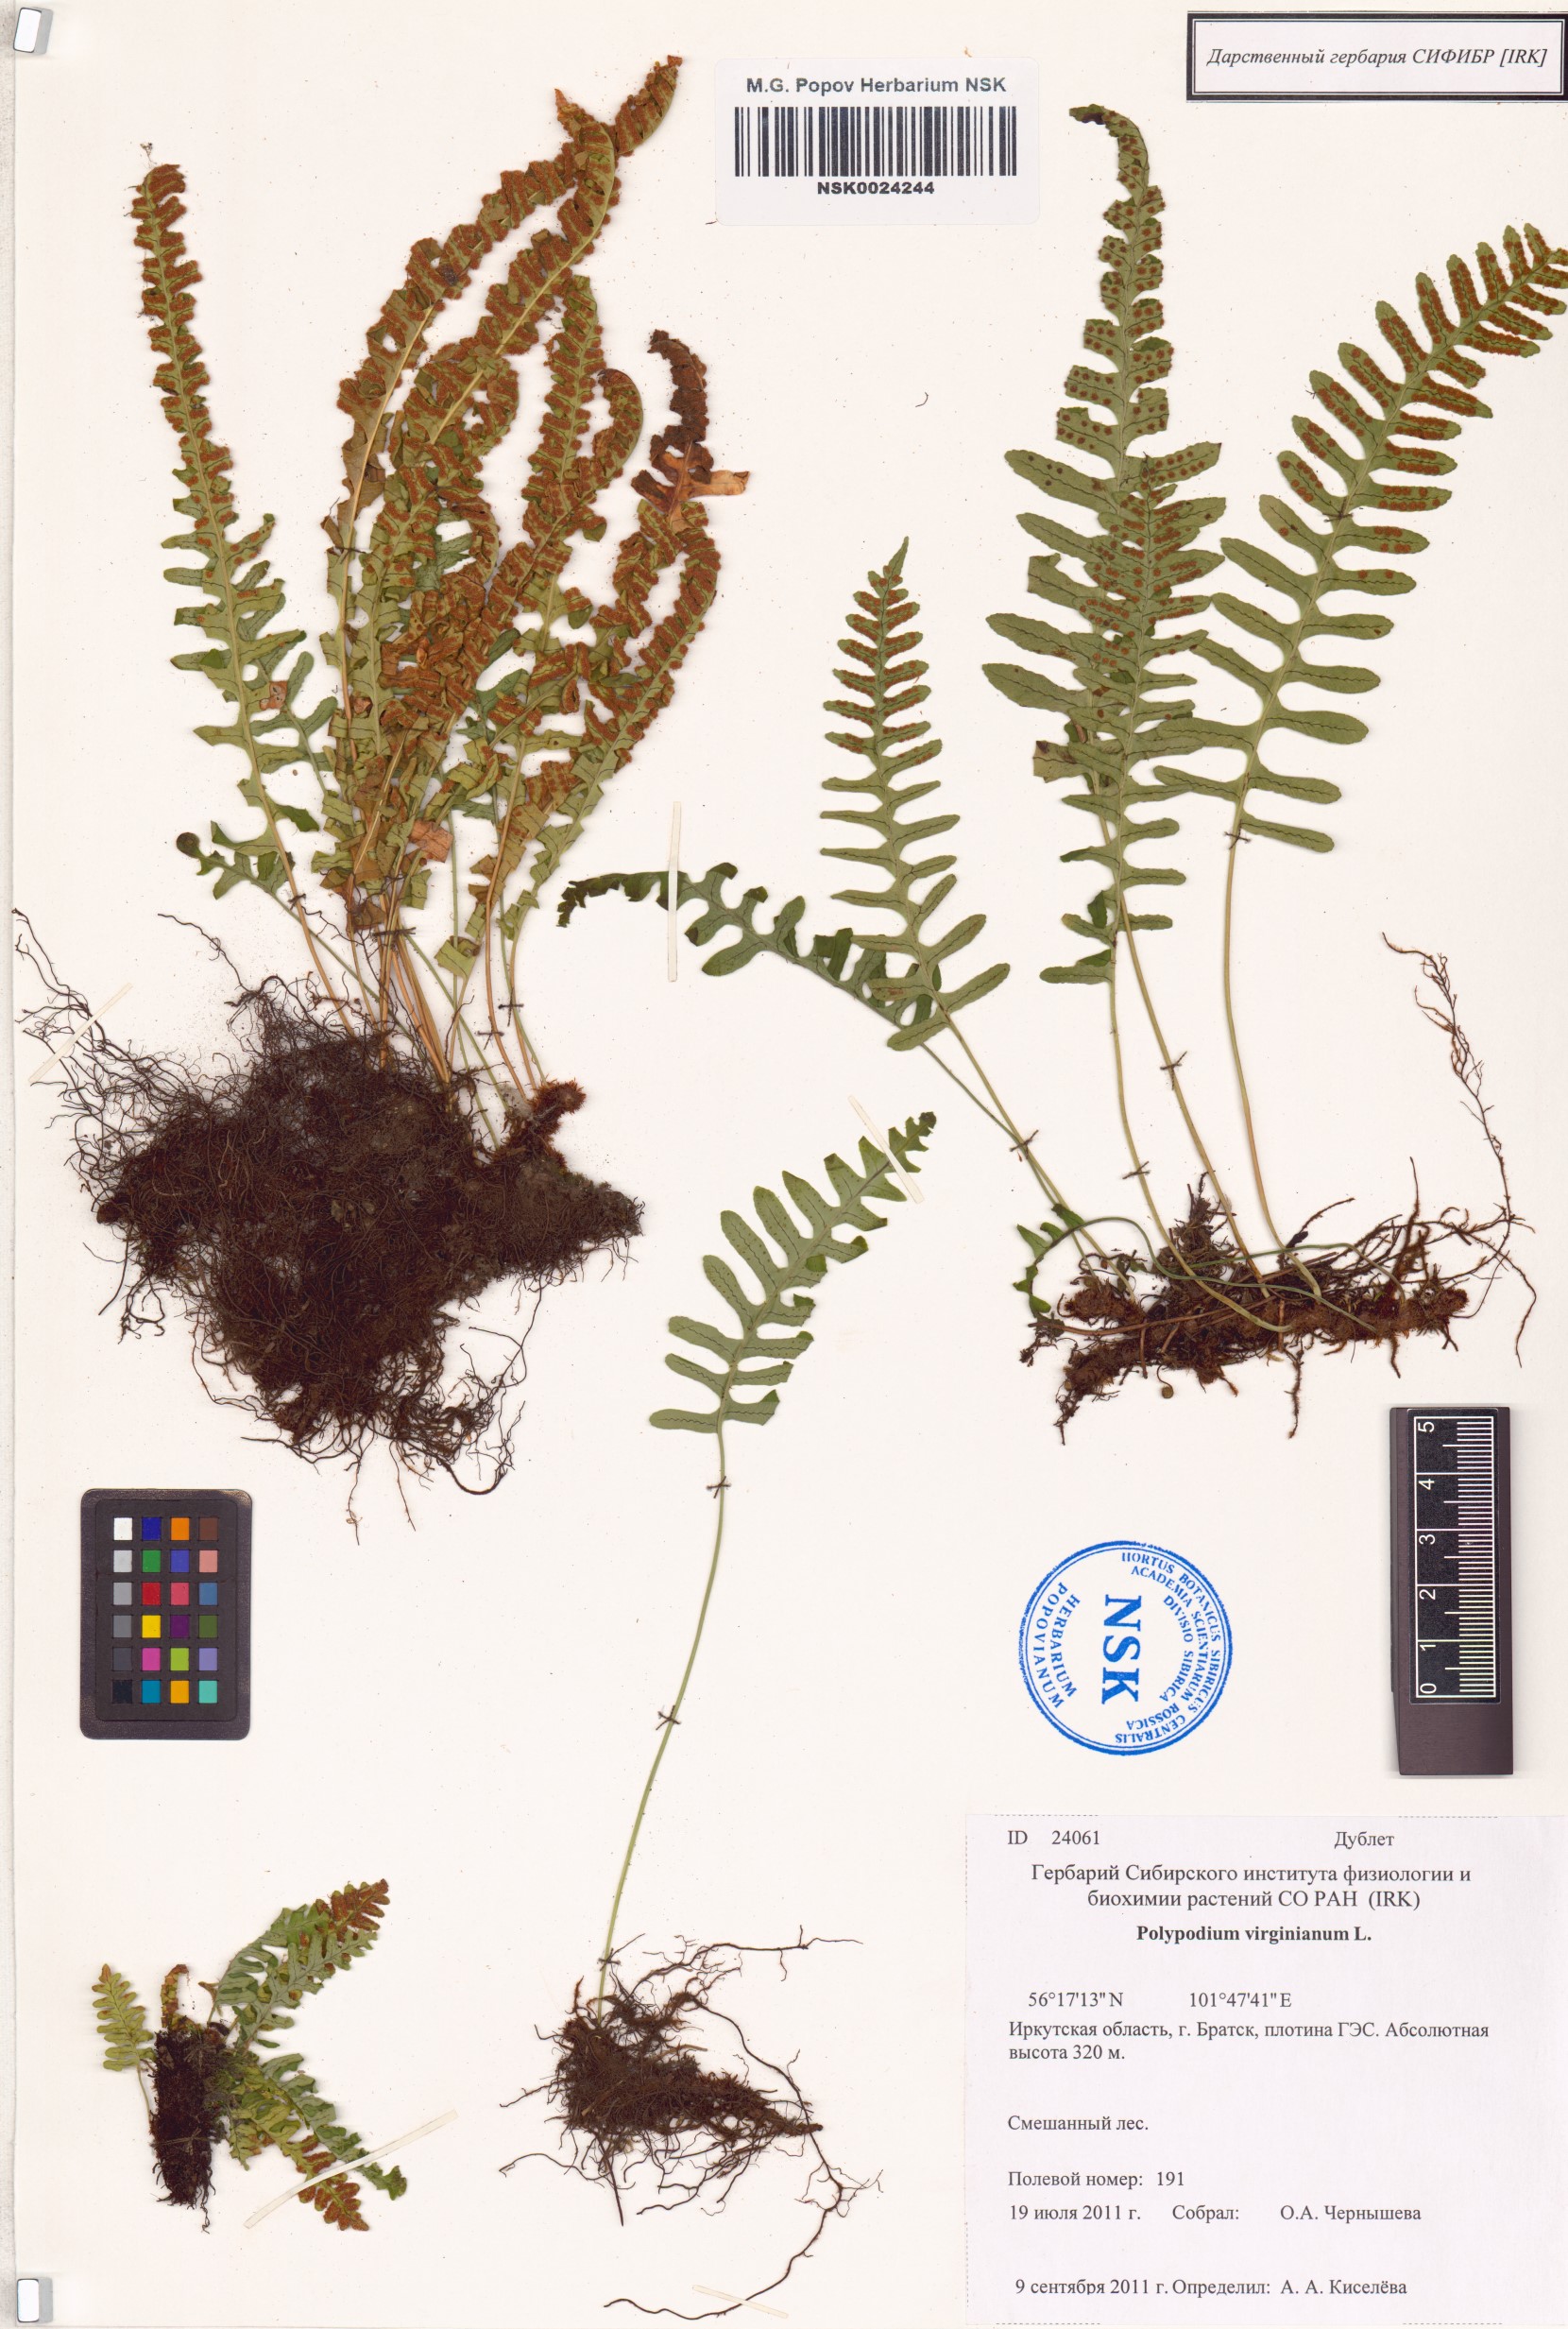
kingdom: Plantae
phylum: Tracheophyta
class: Polypodiopsida
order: Polypodiales
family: Polypodiaceae
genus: Polypodium
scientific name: Polypodium virginianum
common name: American wall fern
